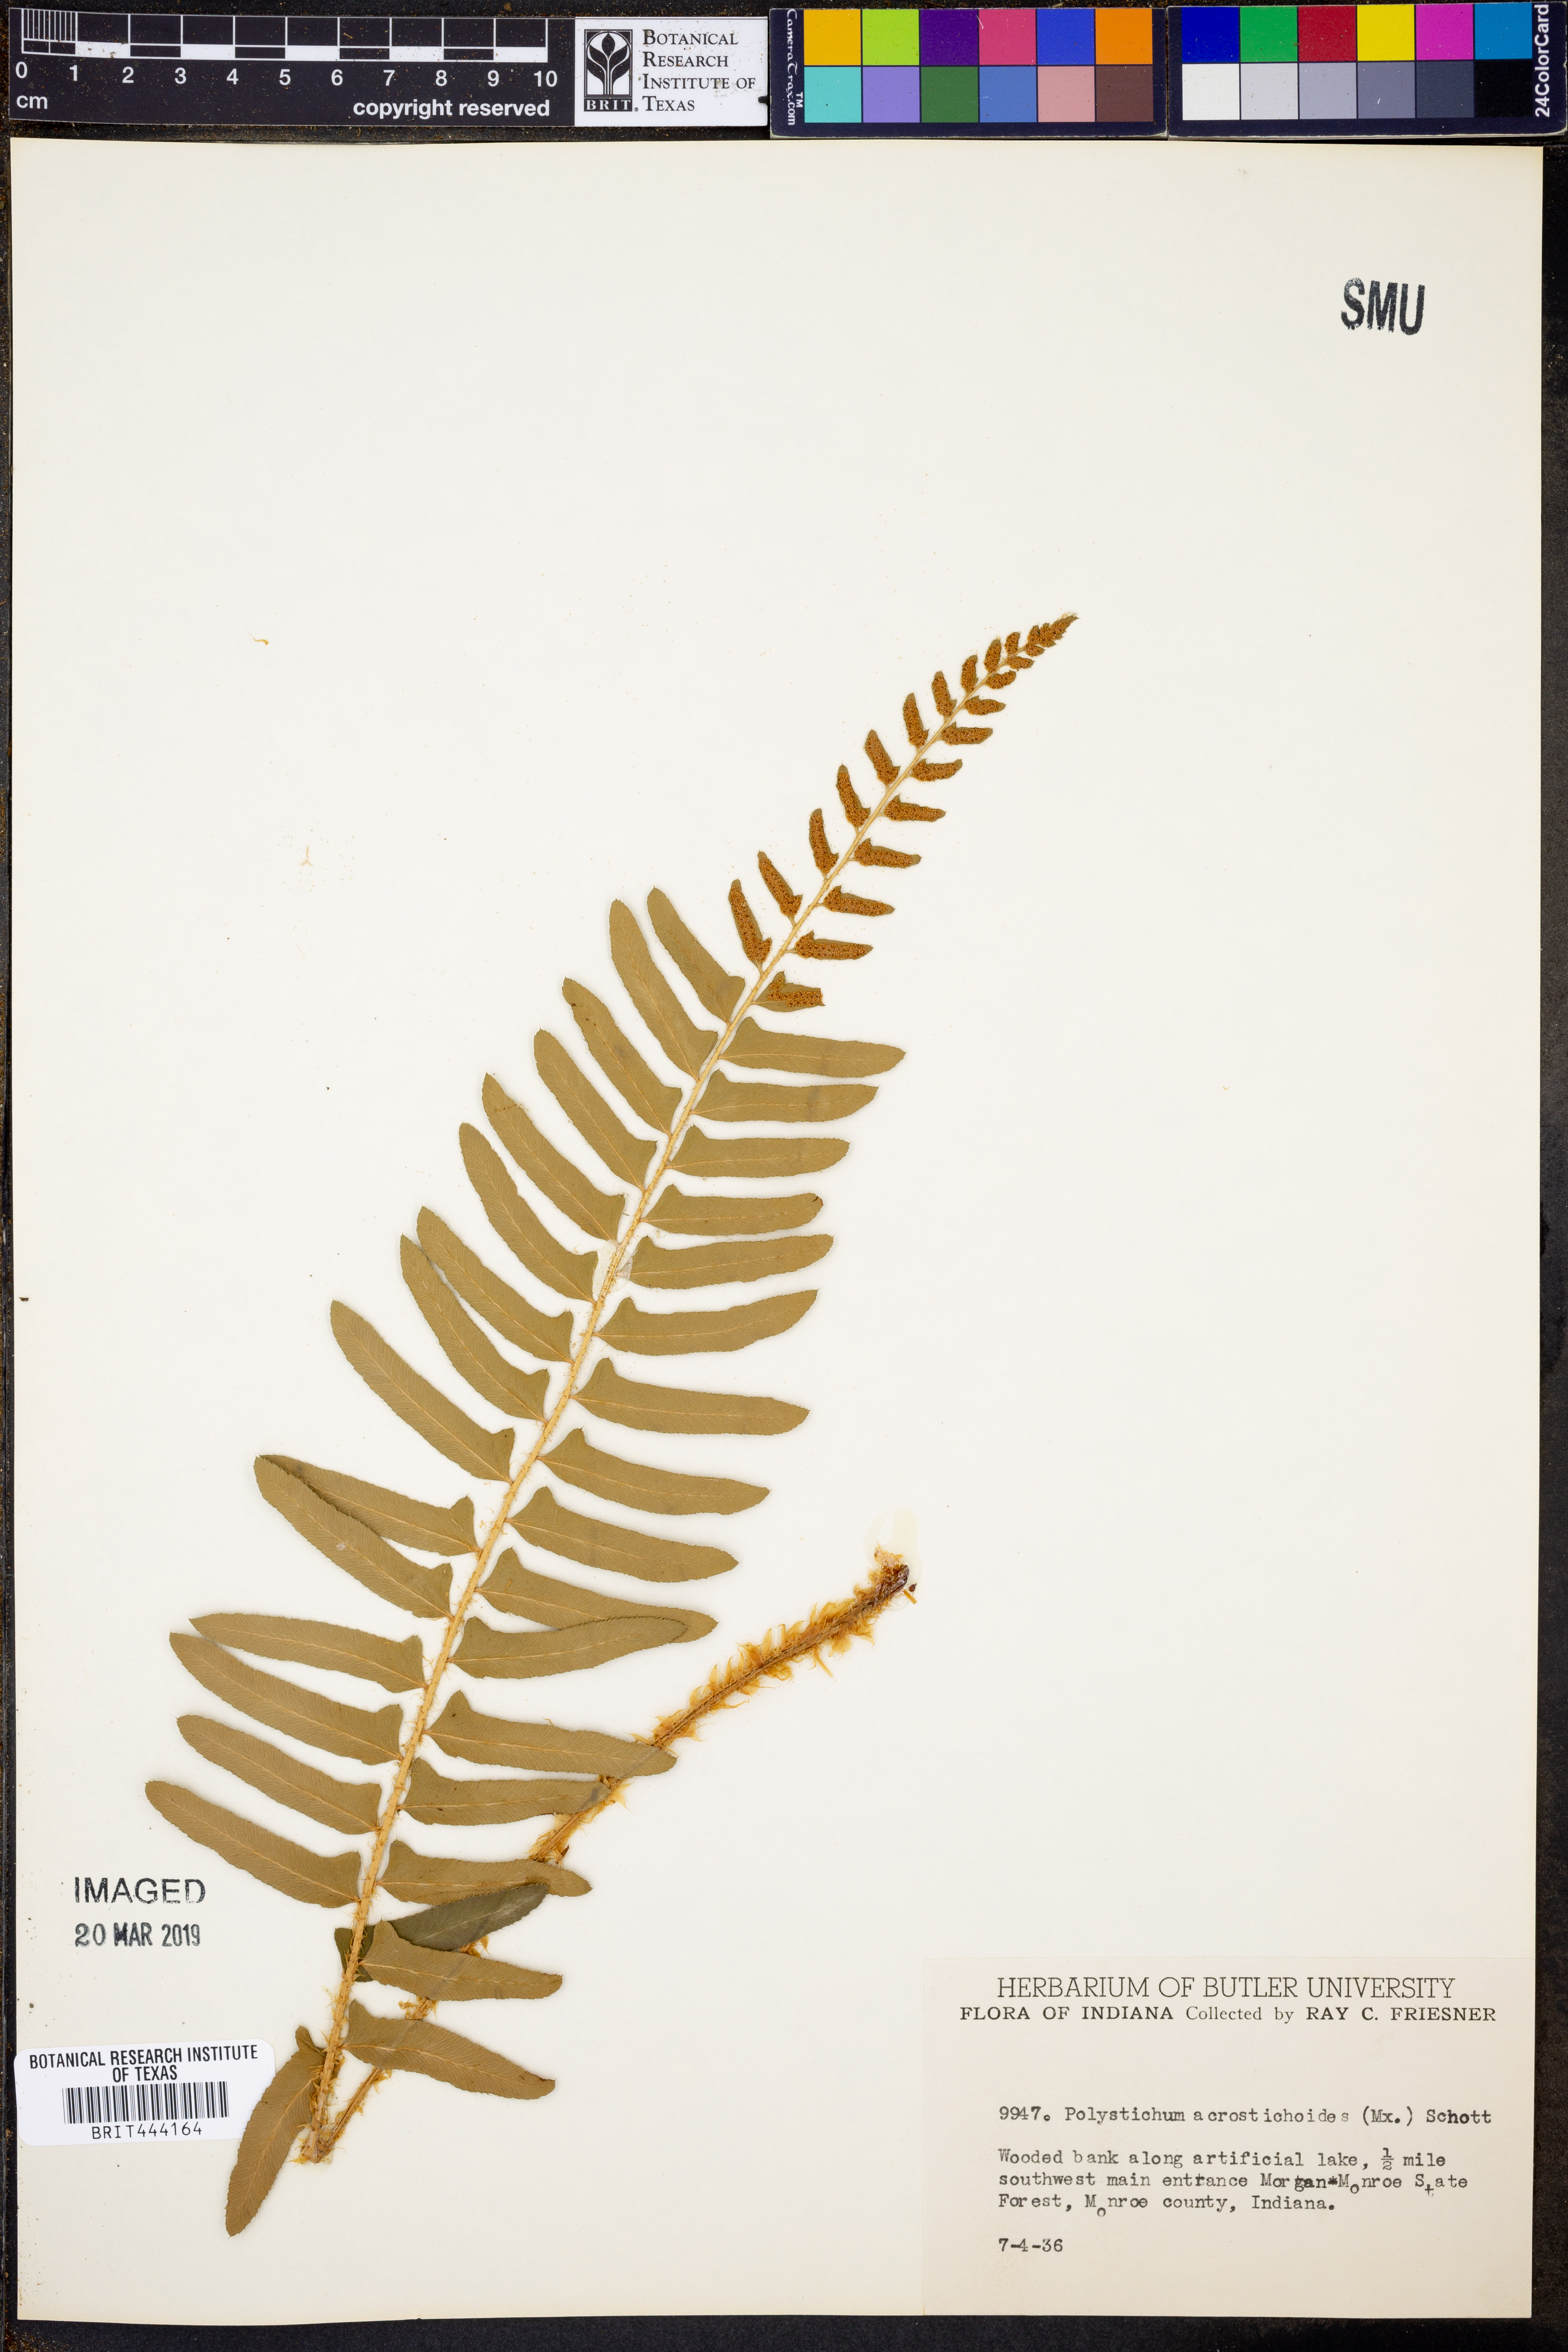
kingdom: Plantae
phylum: Tracheophyta
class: Polypodiopsida
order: Polypodiales
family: Dryopteridaceae
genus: Polystichum
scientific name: Polystichum acrostichoides
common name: Christmas fern
